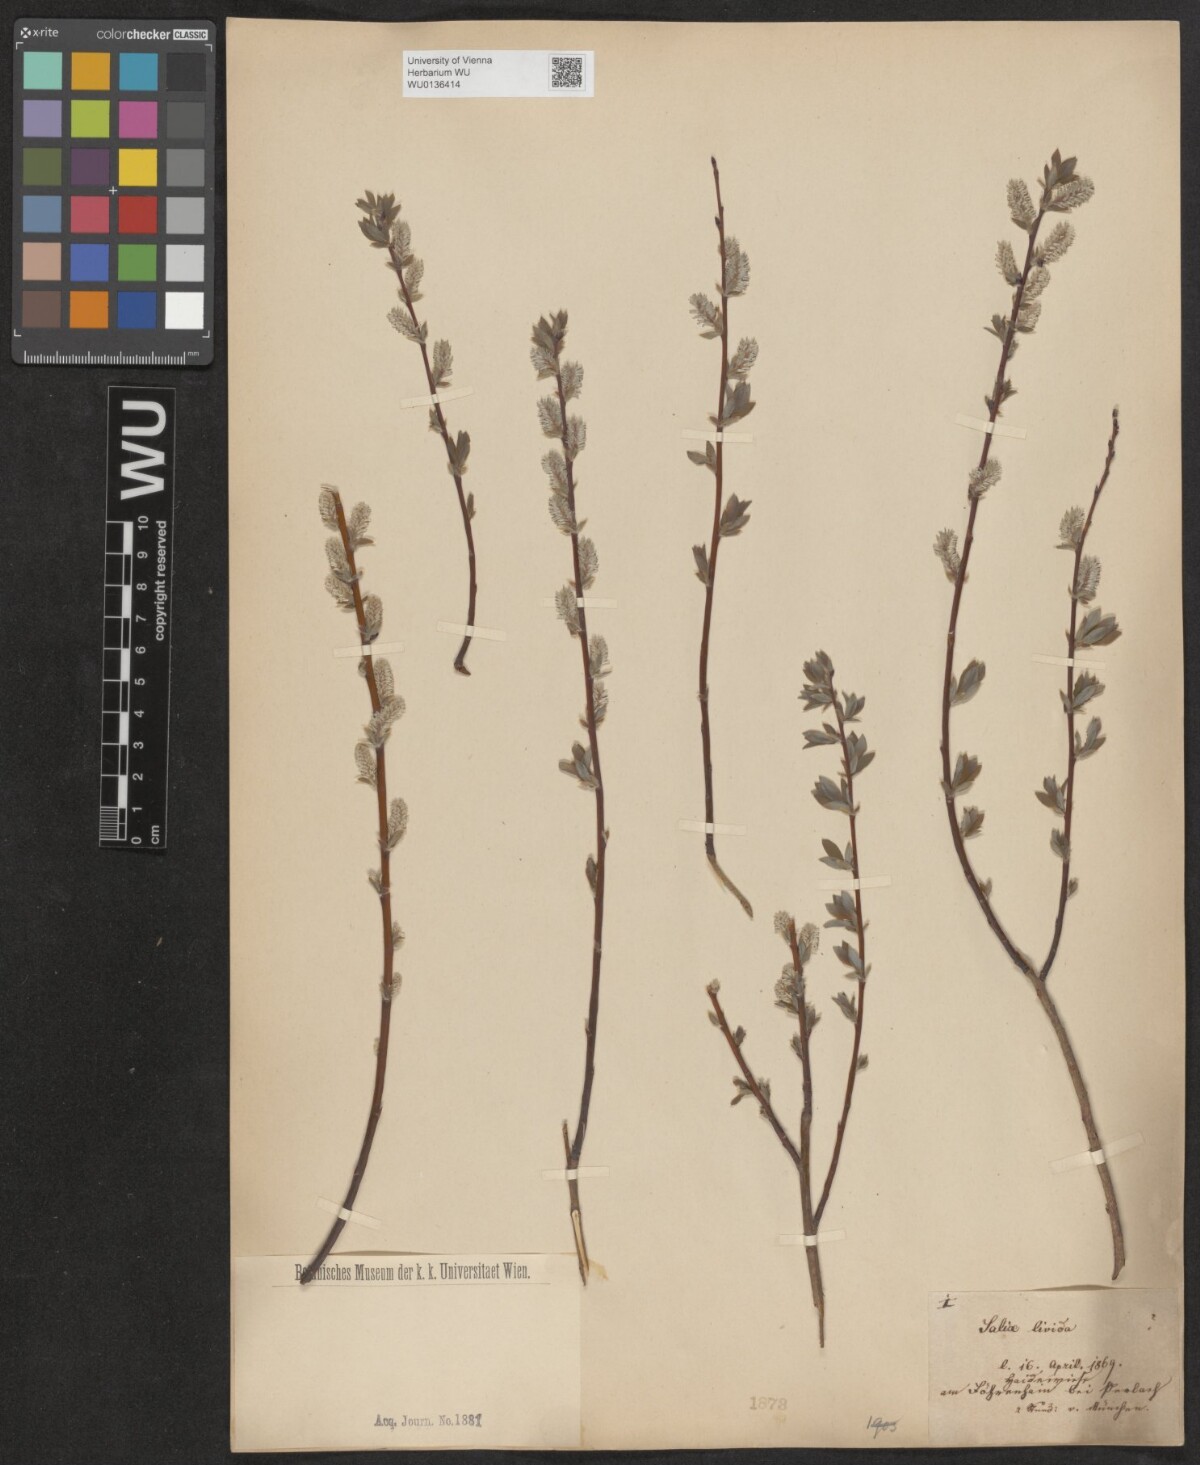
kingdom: Plantae
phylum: Tracheophyta
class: Magnoliopsida
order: Malpighiales
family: Salicaceae
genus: Salix
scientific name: Salix lanata
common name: Woolly willow
